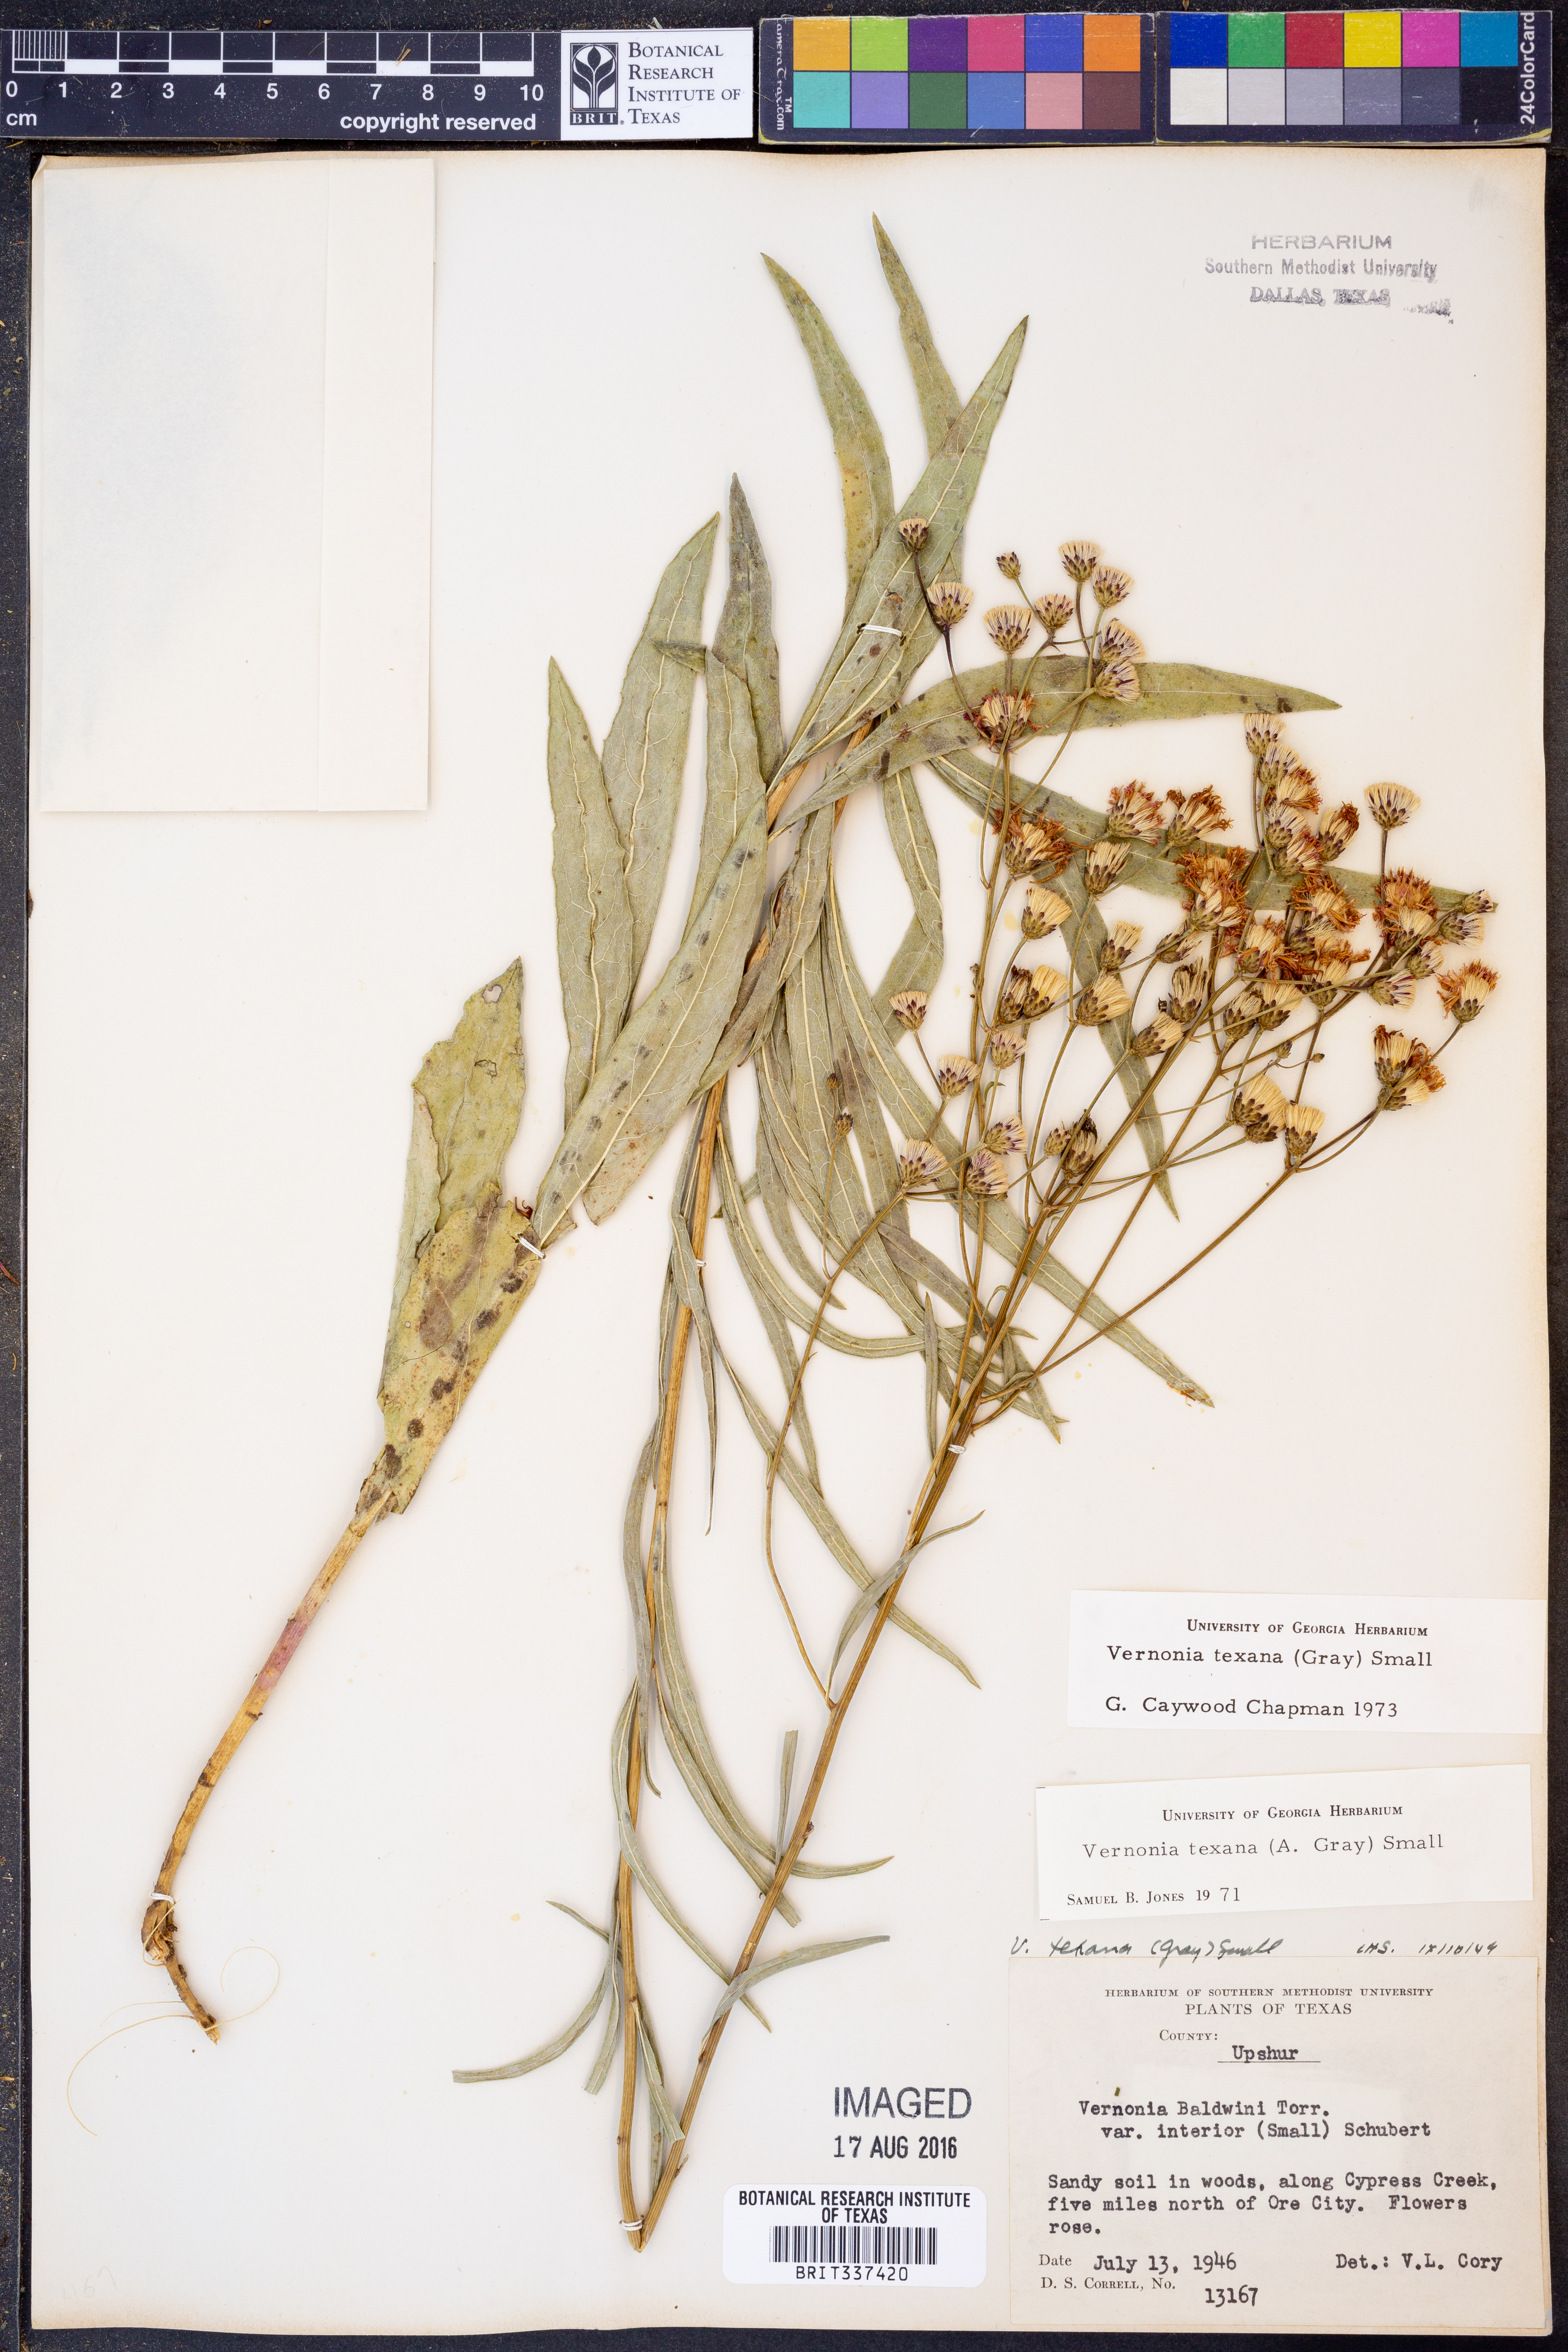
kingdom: Plantae
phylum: Tracheophyta
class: Magnoliopsida
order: Asterales
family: Asteraceae
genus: Vernonia
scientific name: Vernonia texana
